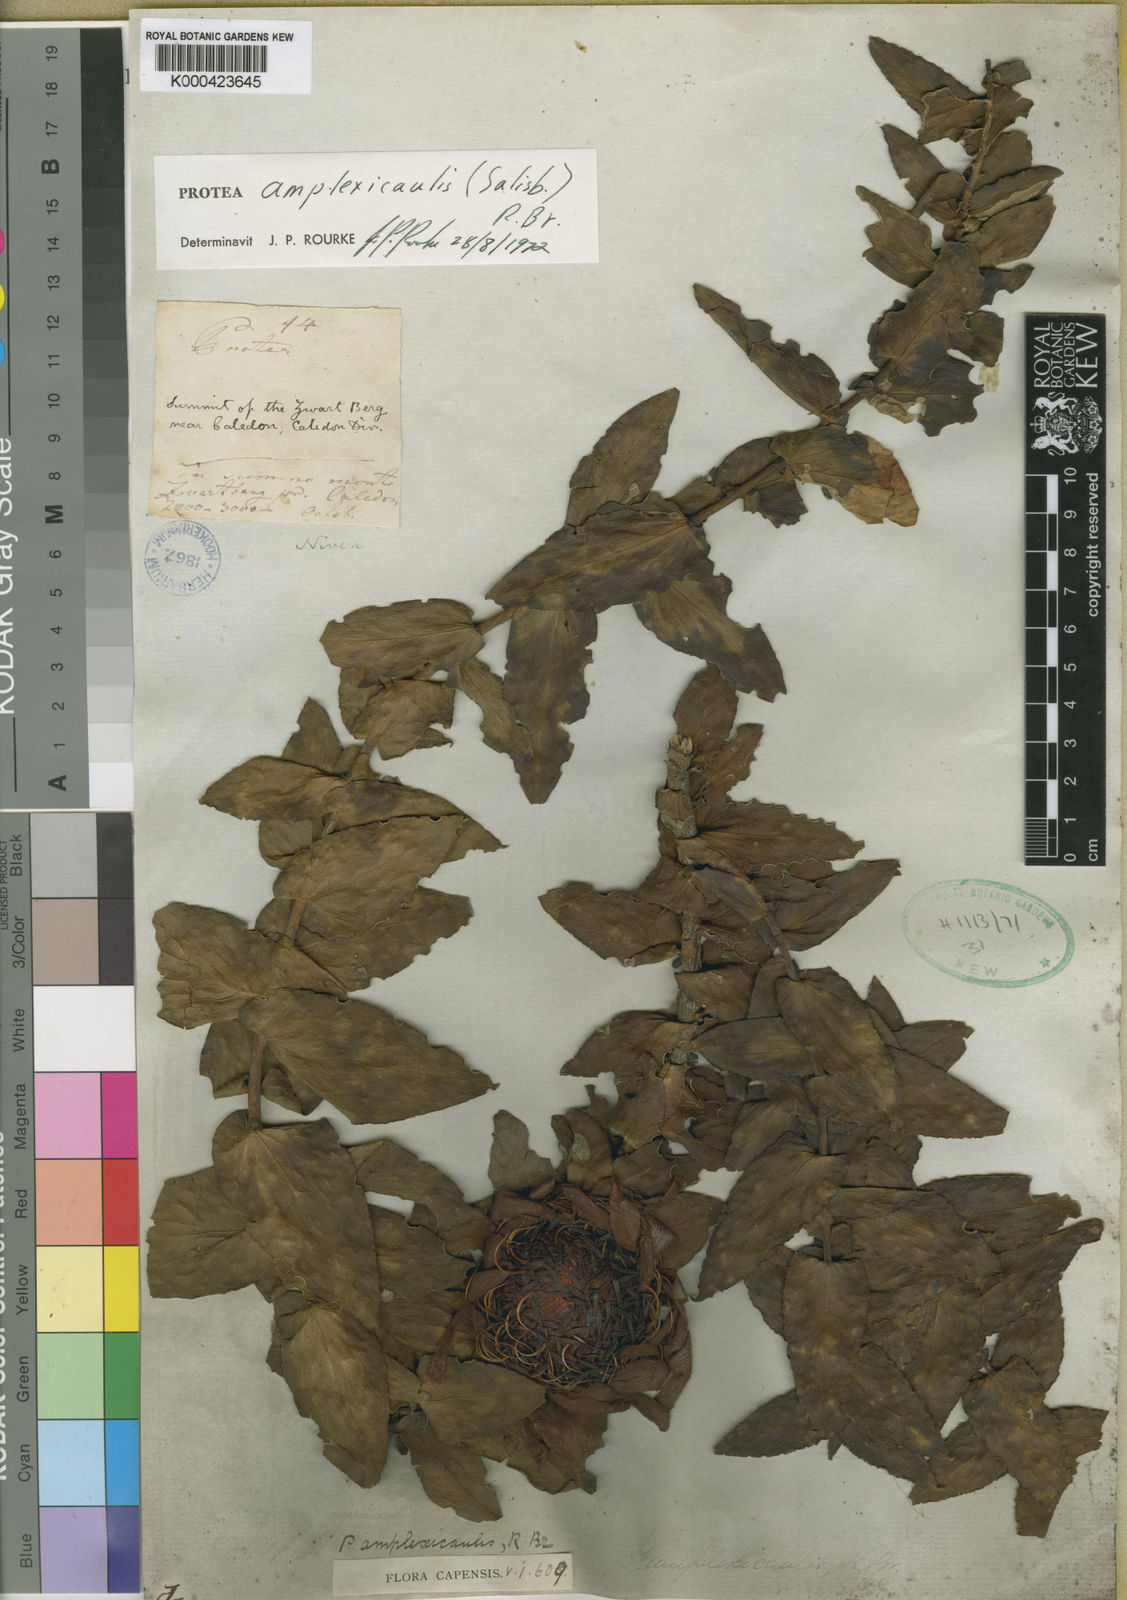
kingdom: Plantae
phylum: Tracheophyta
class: Magnoliopsida
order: Proteales
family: Proteaceae
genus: Protea
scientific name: Protea amplexicaulis
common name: Clasping-leaf sugarbush
